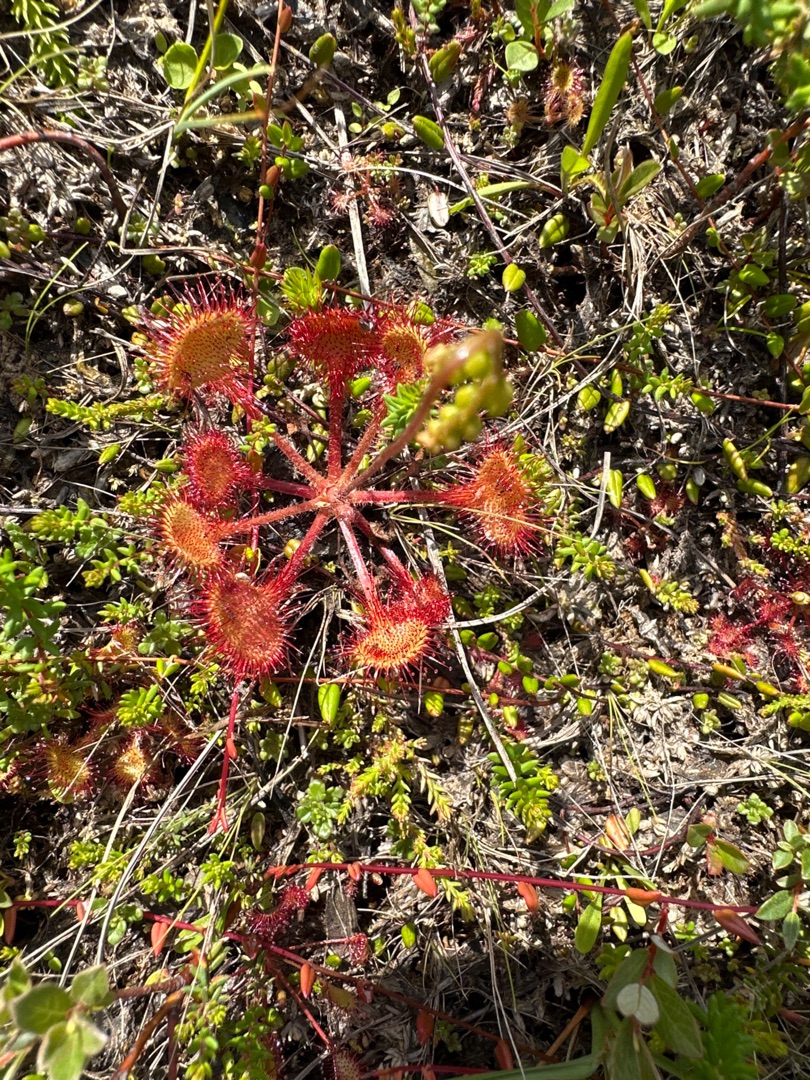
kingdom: Plantae
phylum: Tracheophyta
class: Magnoliopsida
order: Caryophyllales
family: Droseraceae
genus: Drosera
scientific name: Drosera rotundifolia
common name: Rundbladet soldug
